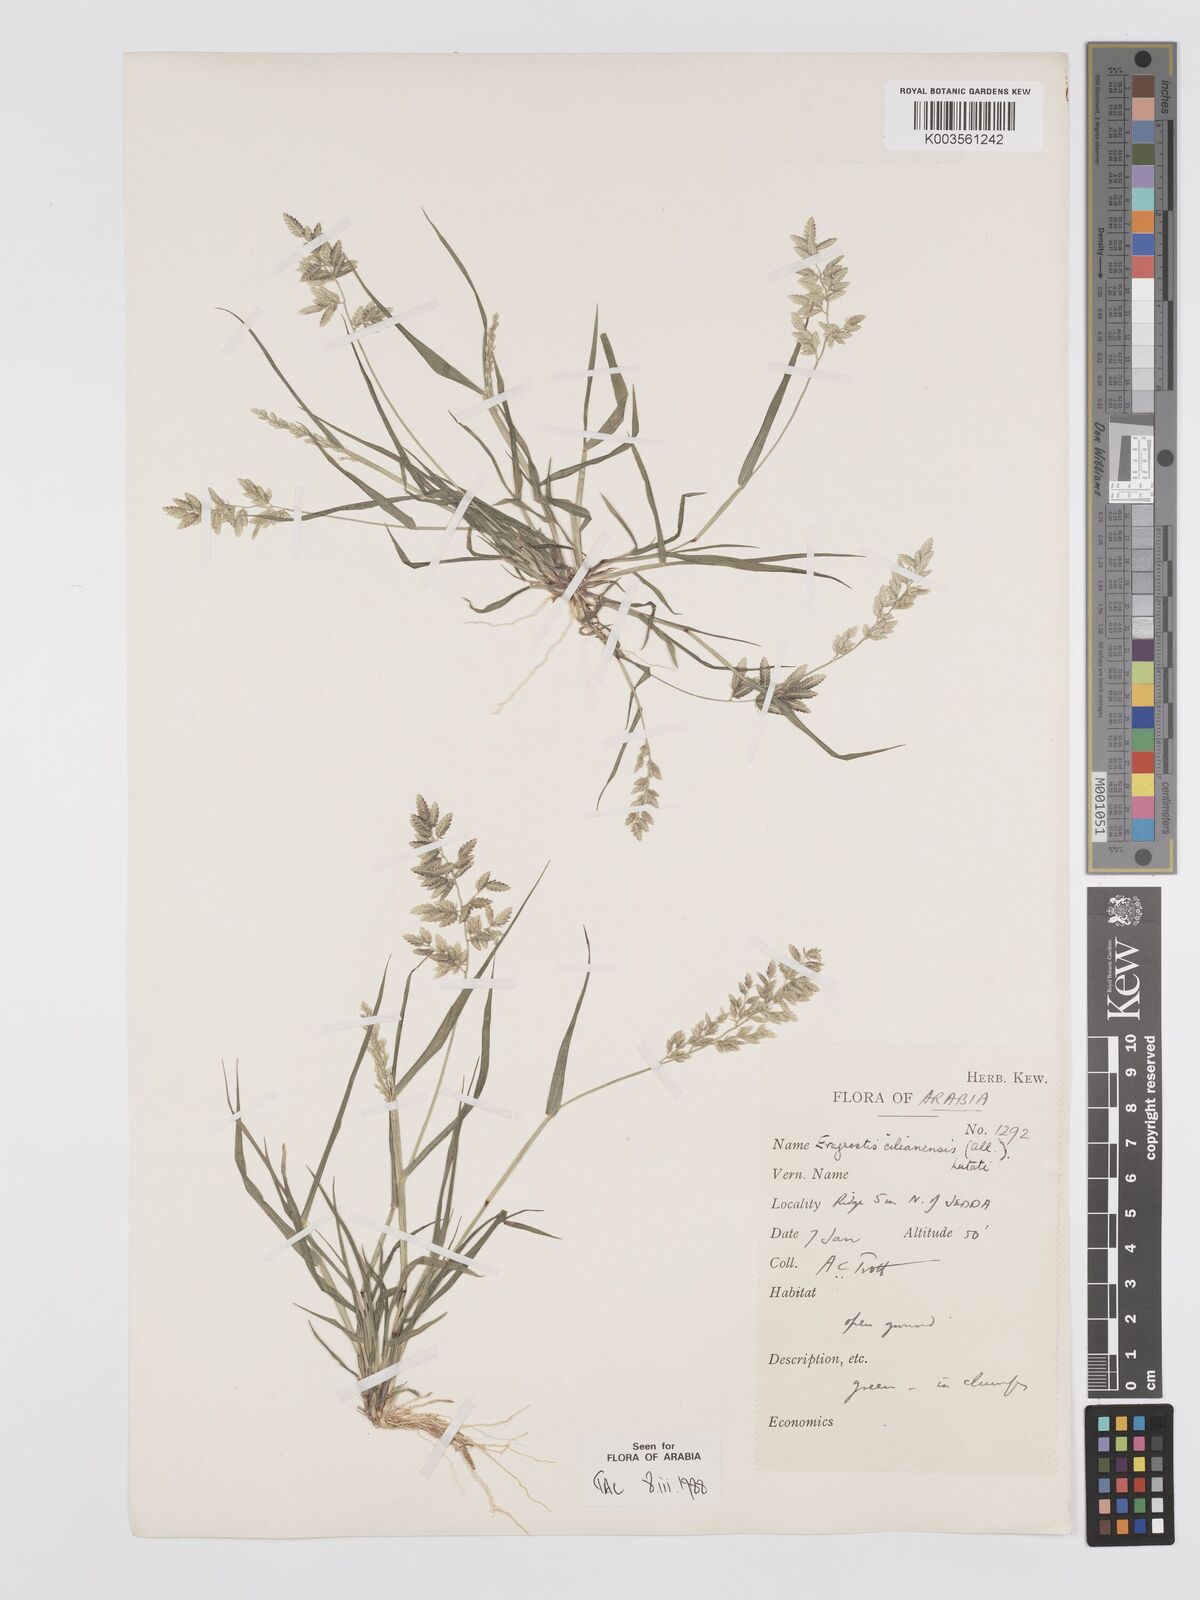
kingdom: Plantae
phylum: Tracheophyta
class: Liliopsida
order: Poales
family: Poaceae
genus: Eragrostis
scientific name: Eragrostis cilianensis
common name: Stinkgrass
